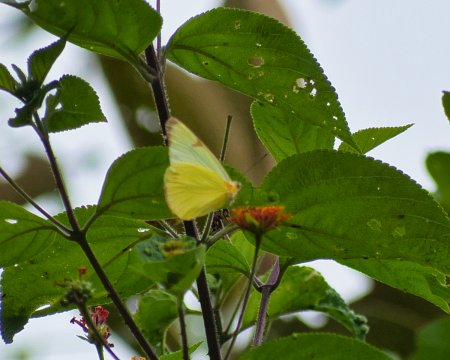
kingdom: Animalia
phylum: Arthropoda
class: Insecta
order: Lepidoptera
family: Pieridae
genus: Melete
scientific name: Melete polyhymnia
